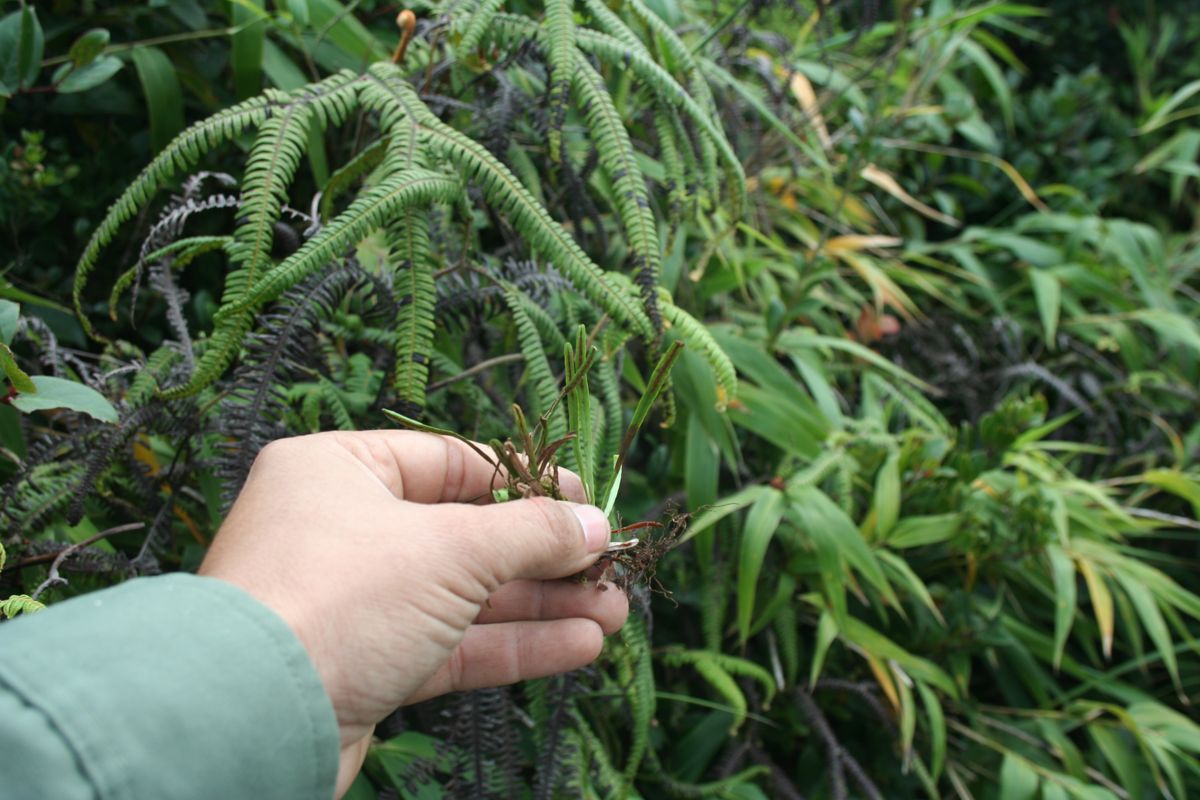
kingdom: Plantae
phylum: Tracheophyta
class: Polypodiopsida
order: Polypodiales
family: Polypodiaceae
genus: Cochlidium
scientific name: Cochlidium rostratum
